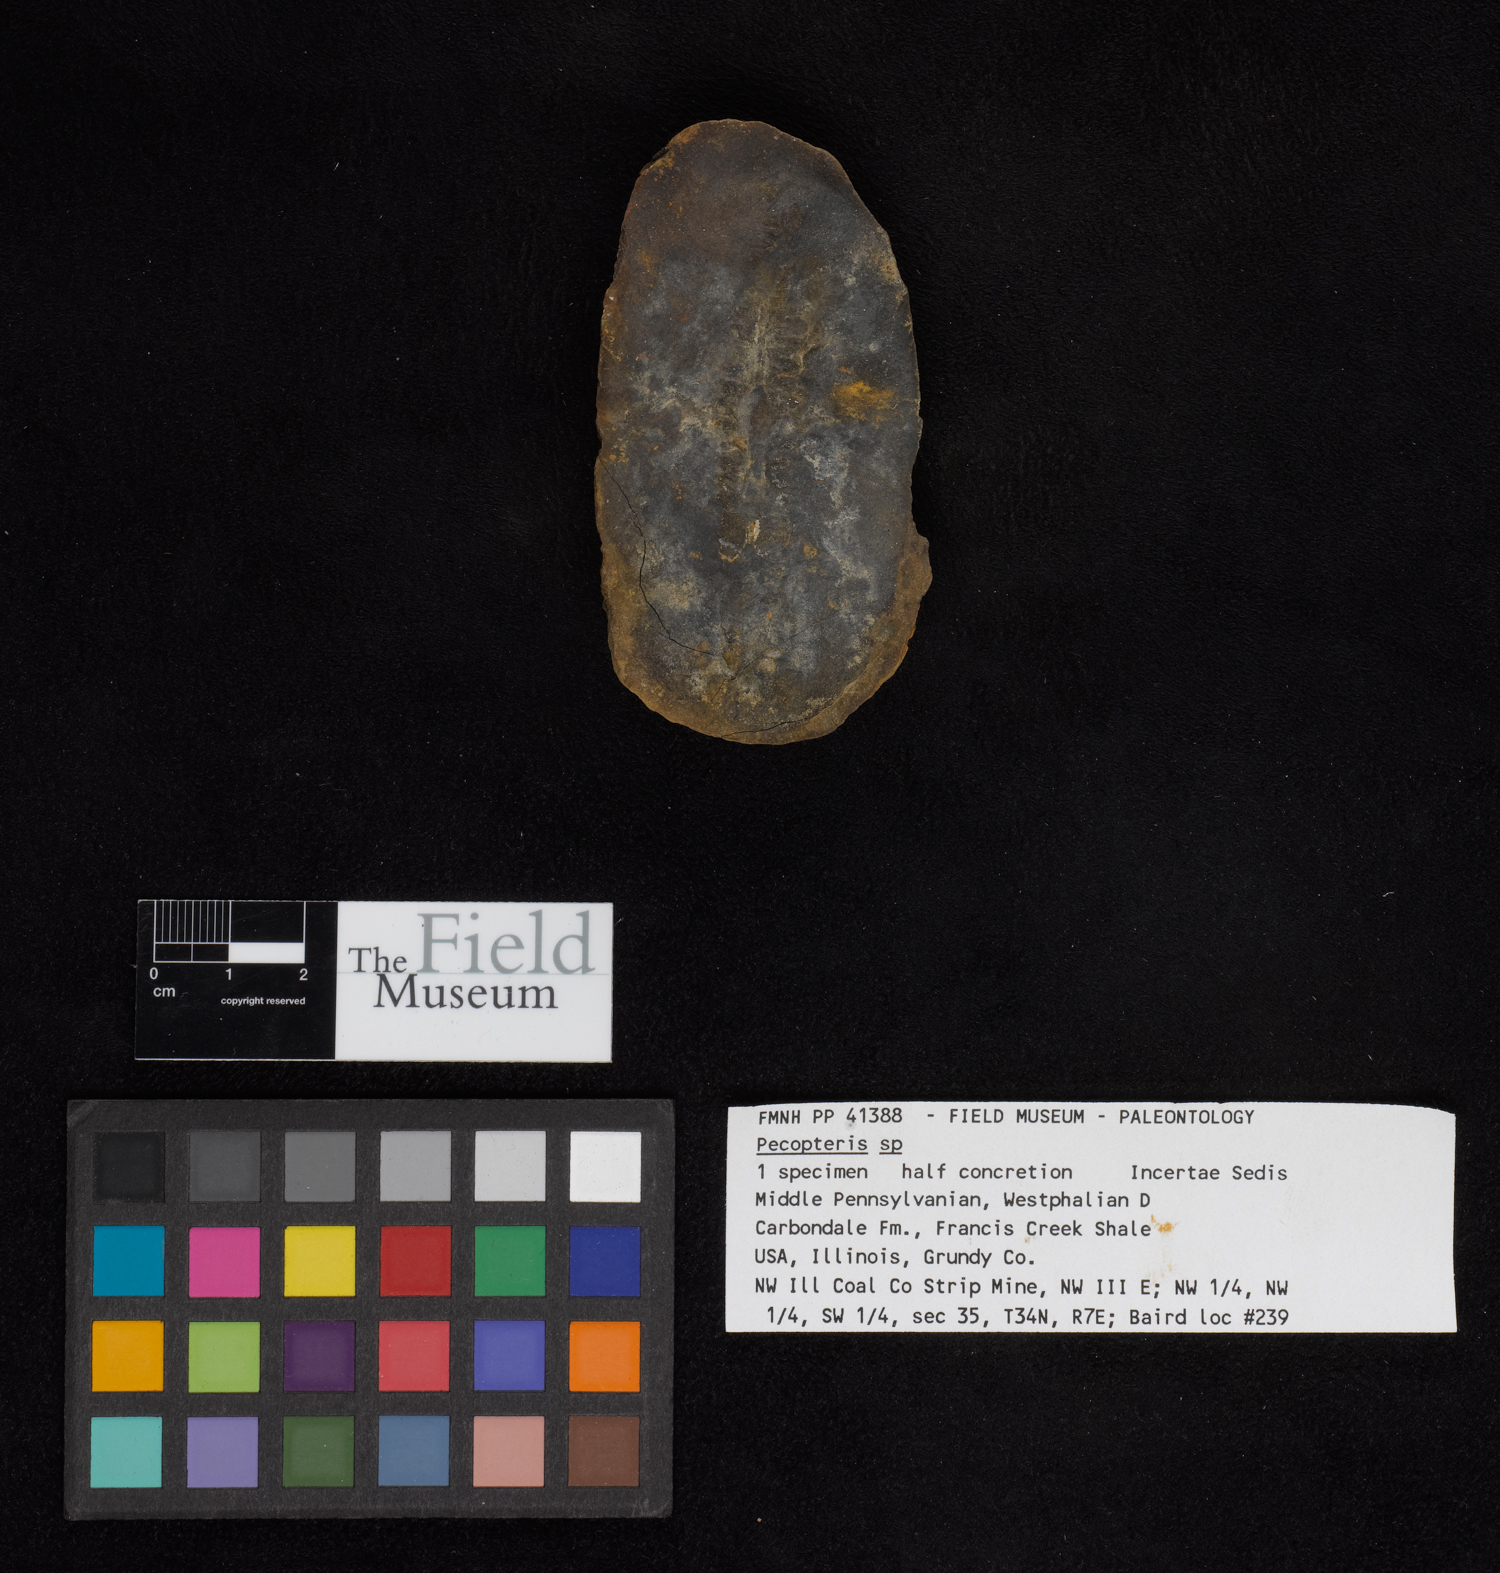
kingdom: Plantae
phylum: Tracheophyta
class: Polypodiopsida
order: Marattiales
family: Asterothecaceae
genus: Pecopteris
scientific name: Pecopteris
